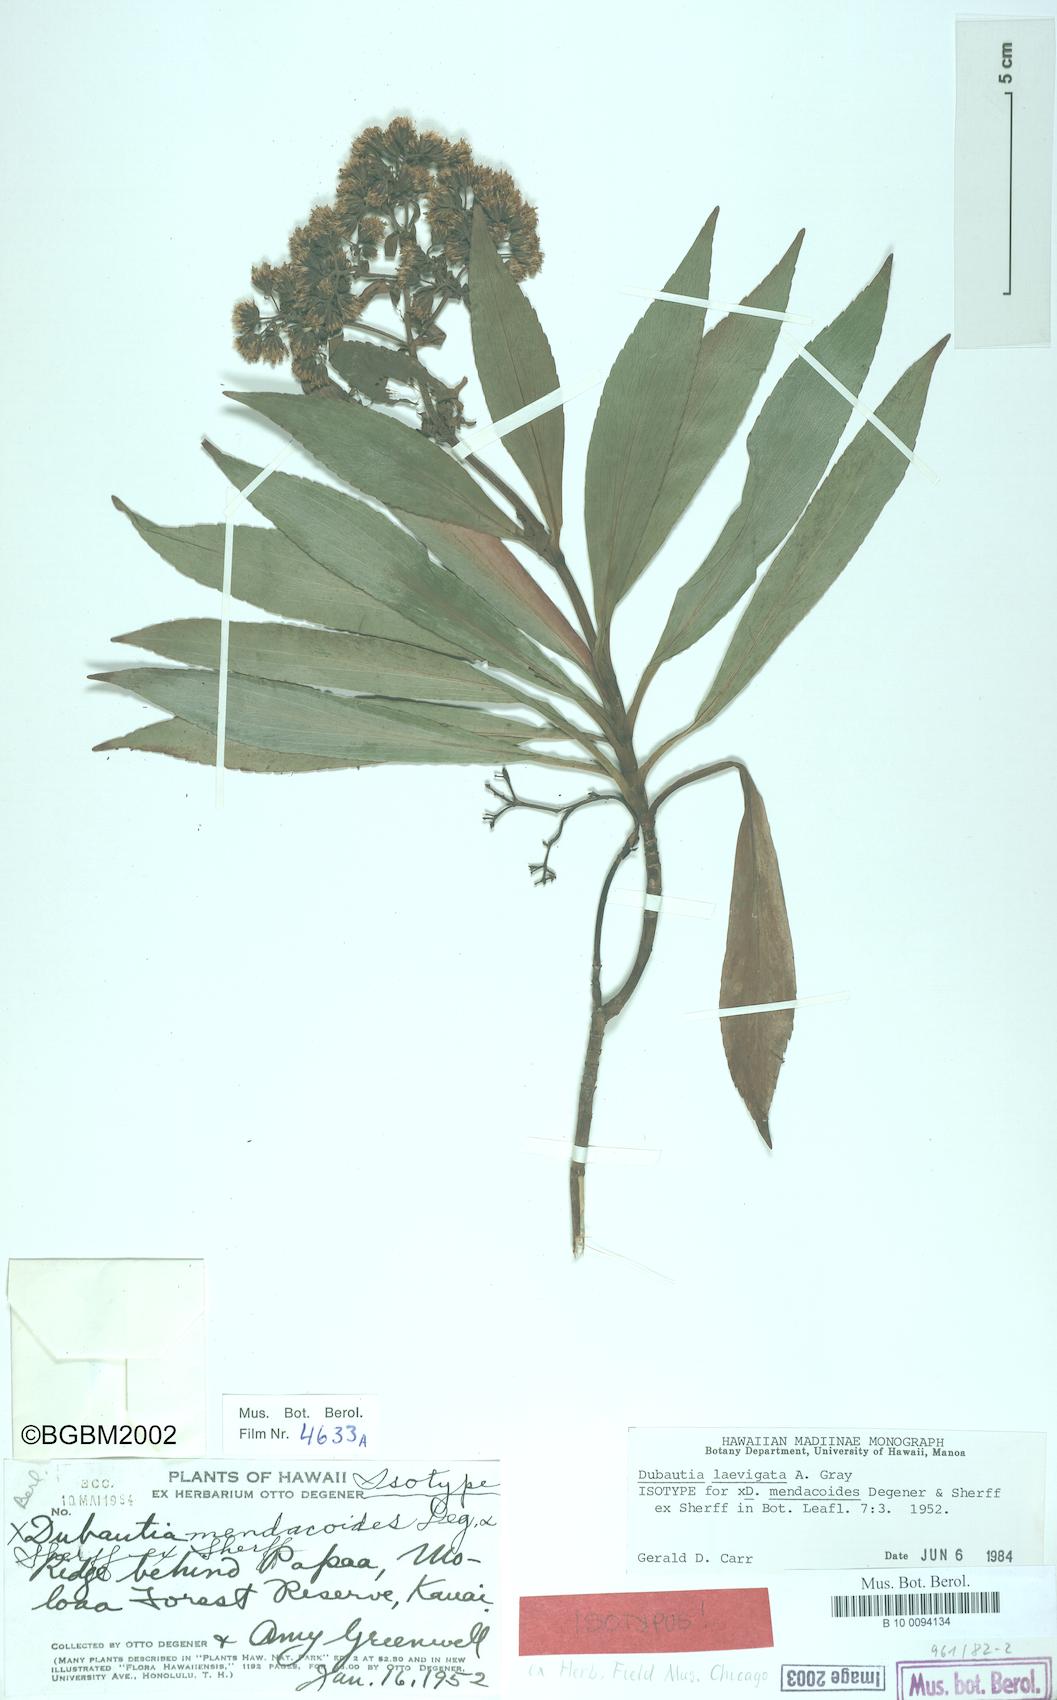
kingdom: Plantae
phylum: Tracheophyta
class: Magnoliopsida
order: Asterales
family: Asteraceae
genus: Dubautia
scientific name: Dubautia laevigata
